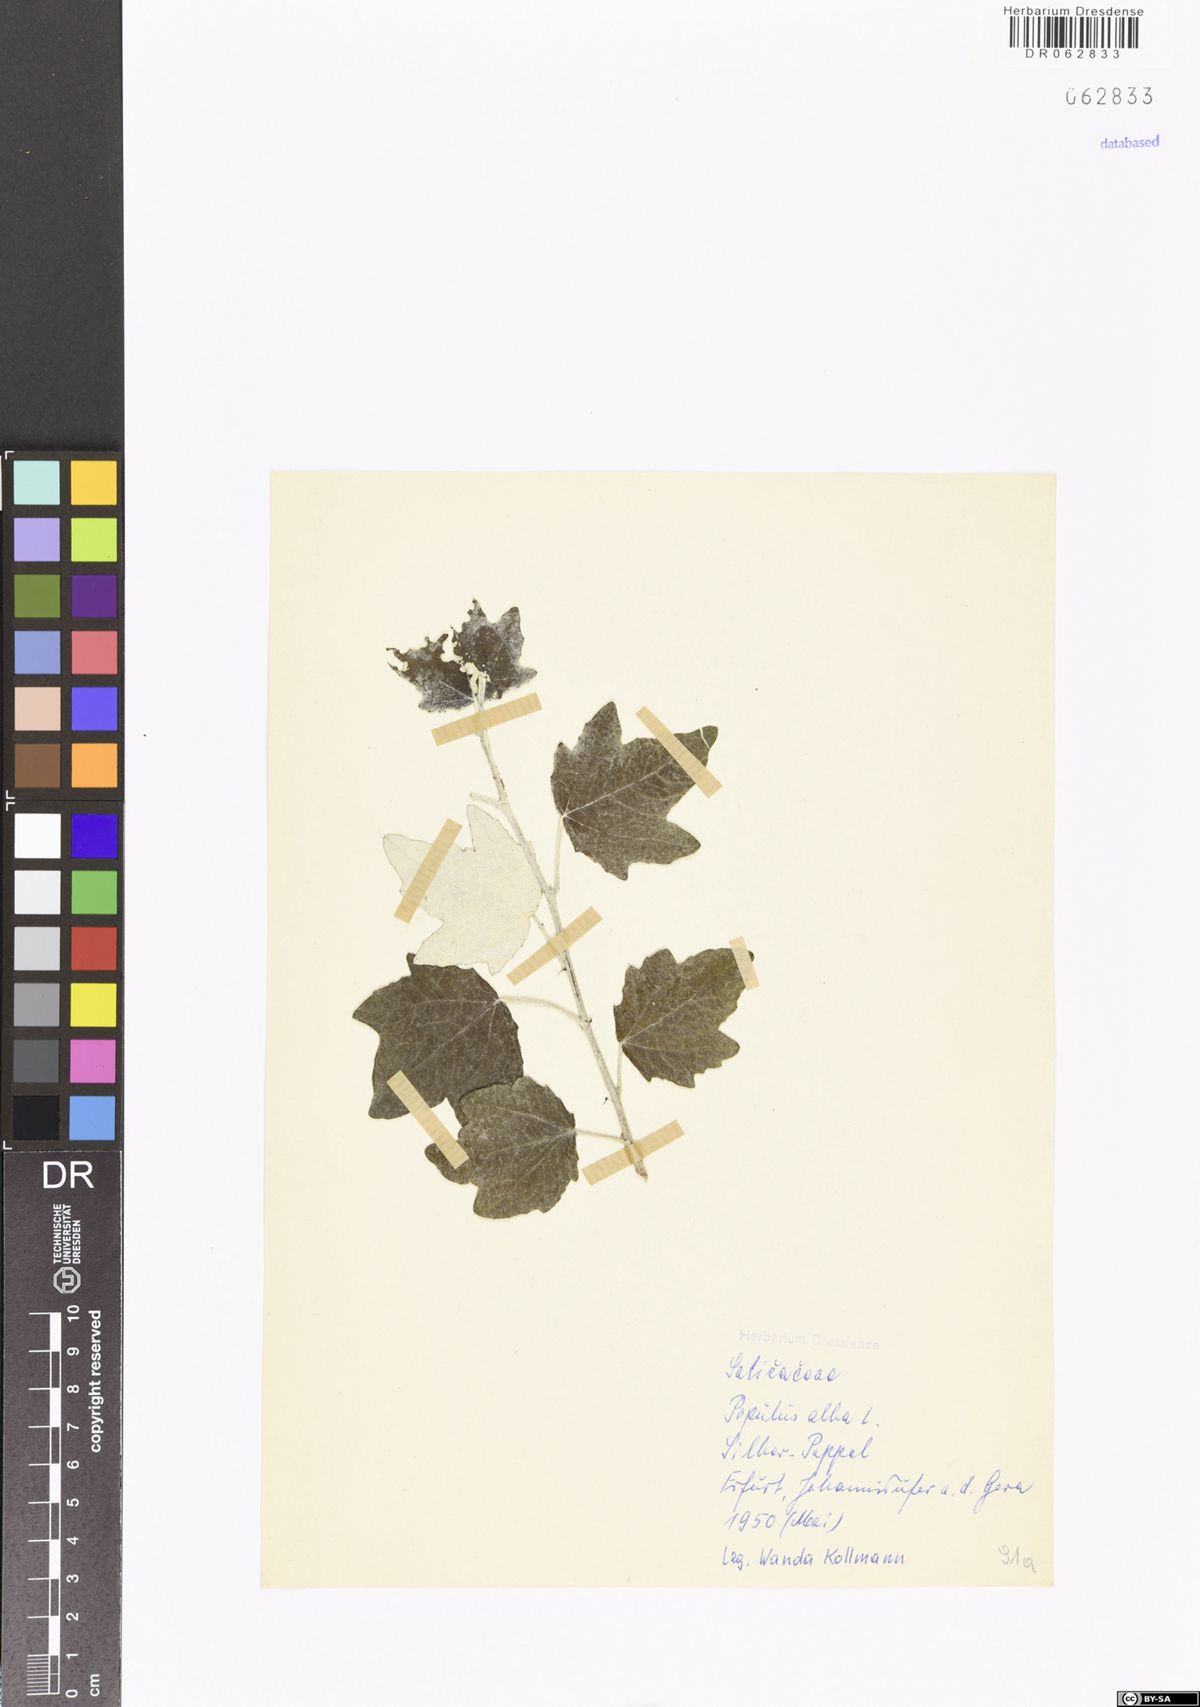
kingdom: Plantae
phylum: Tracheophyta
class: Magnoliopsida
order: Malpighiales
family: Salicaceae
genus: Populus
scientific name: Populus alba
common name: White poplar
